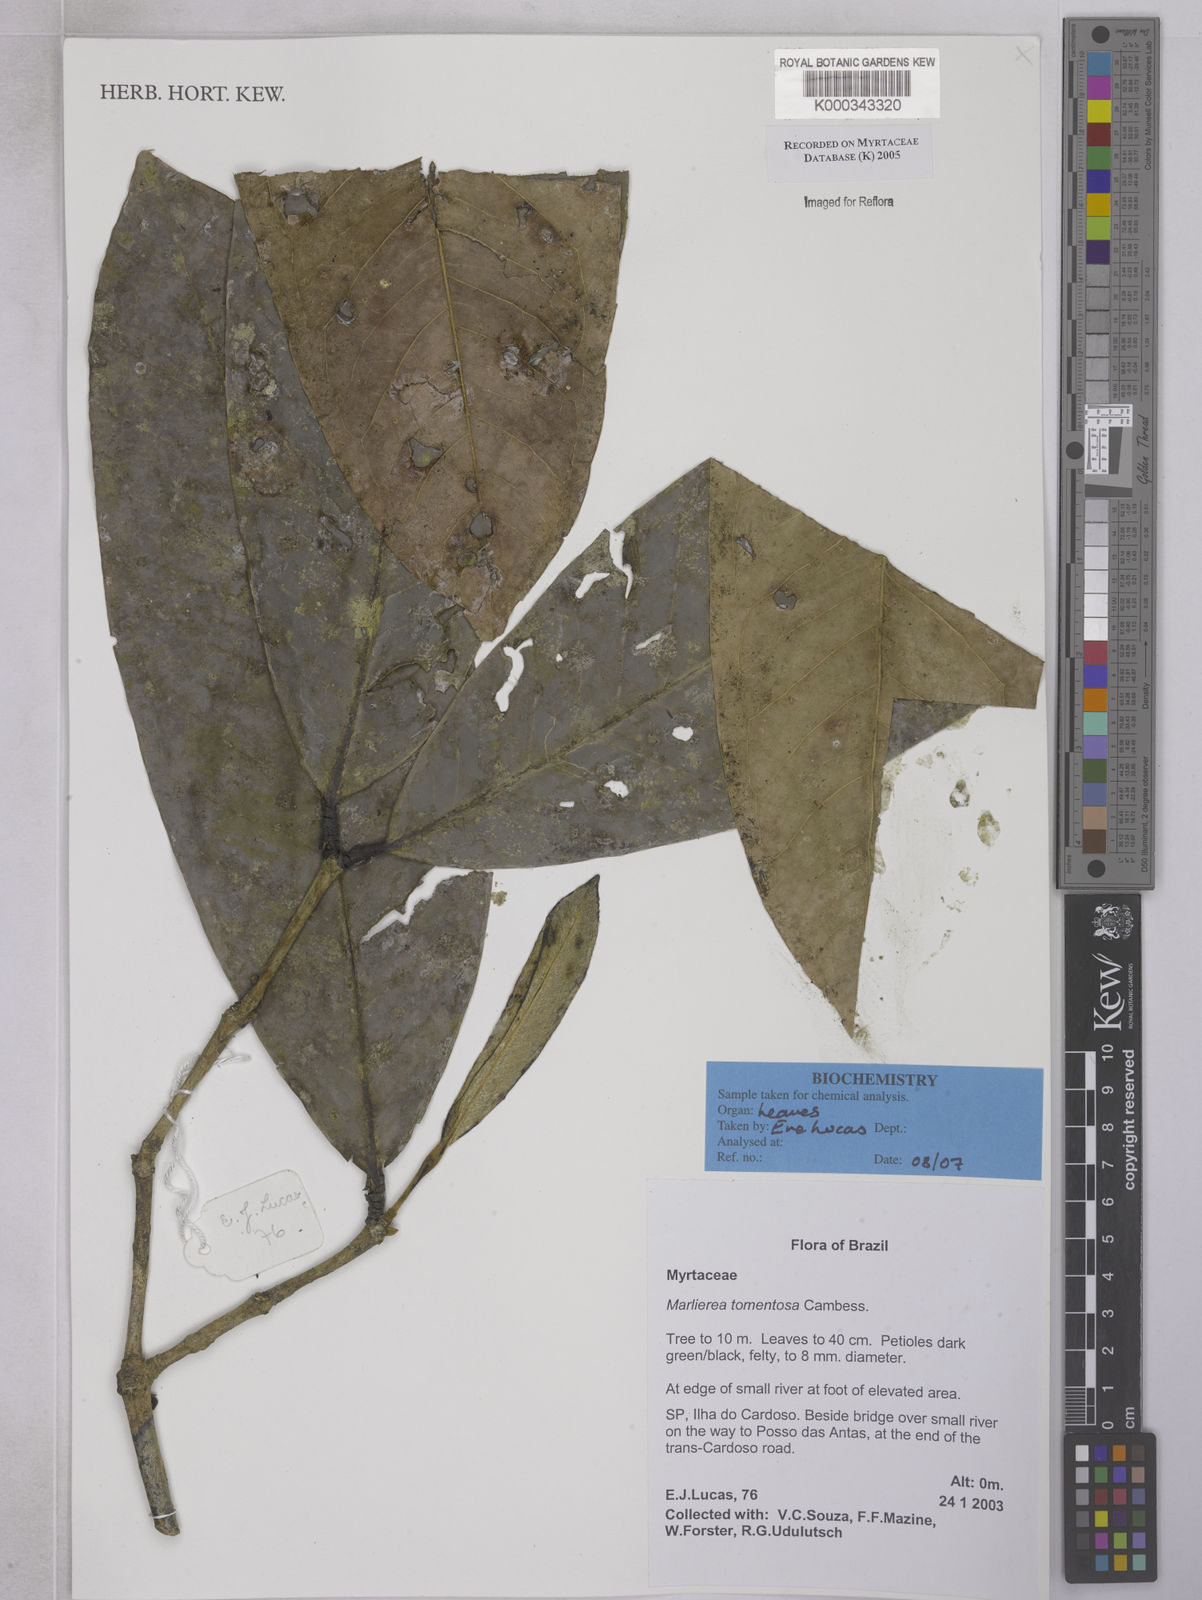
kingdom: Plantae
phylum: Tracheophyta
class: Magnoliopsida
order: Myrtales
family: Myrtaceae
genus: Myrcia
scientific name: Myrcia neotomentosa
